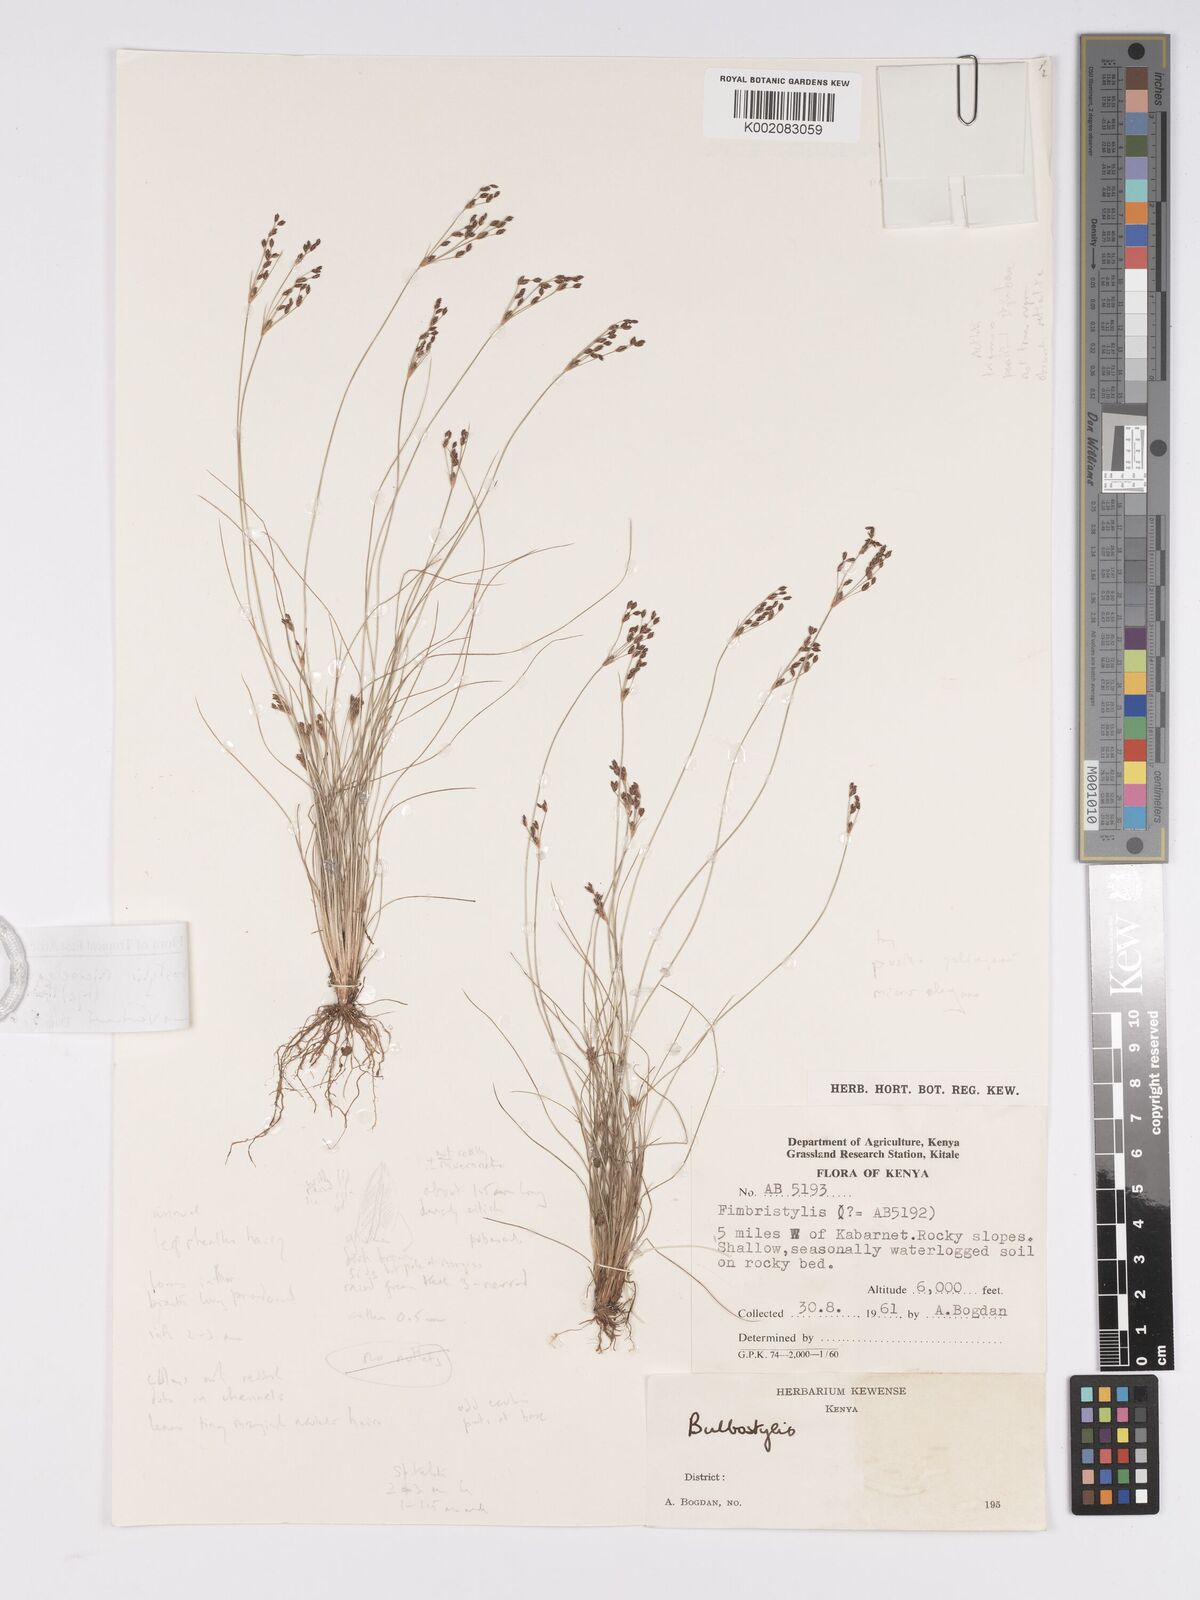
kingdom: Plantae
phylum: Tracheophyta
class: Liliopsida
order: Poales
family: Cyperaceae
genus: Bulbostylis
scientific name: Bulbostylis microelegans
